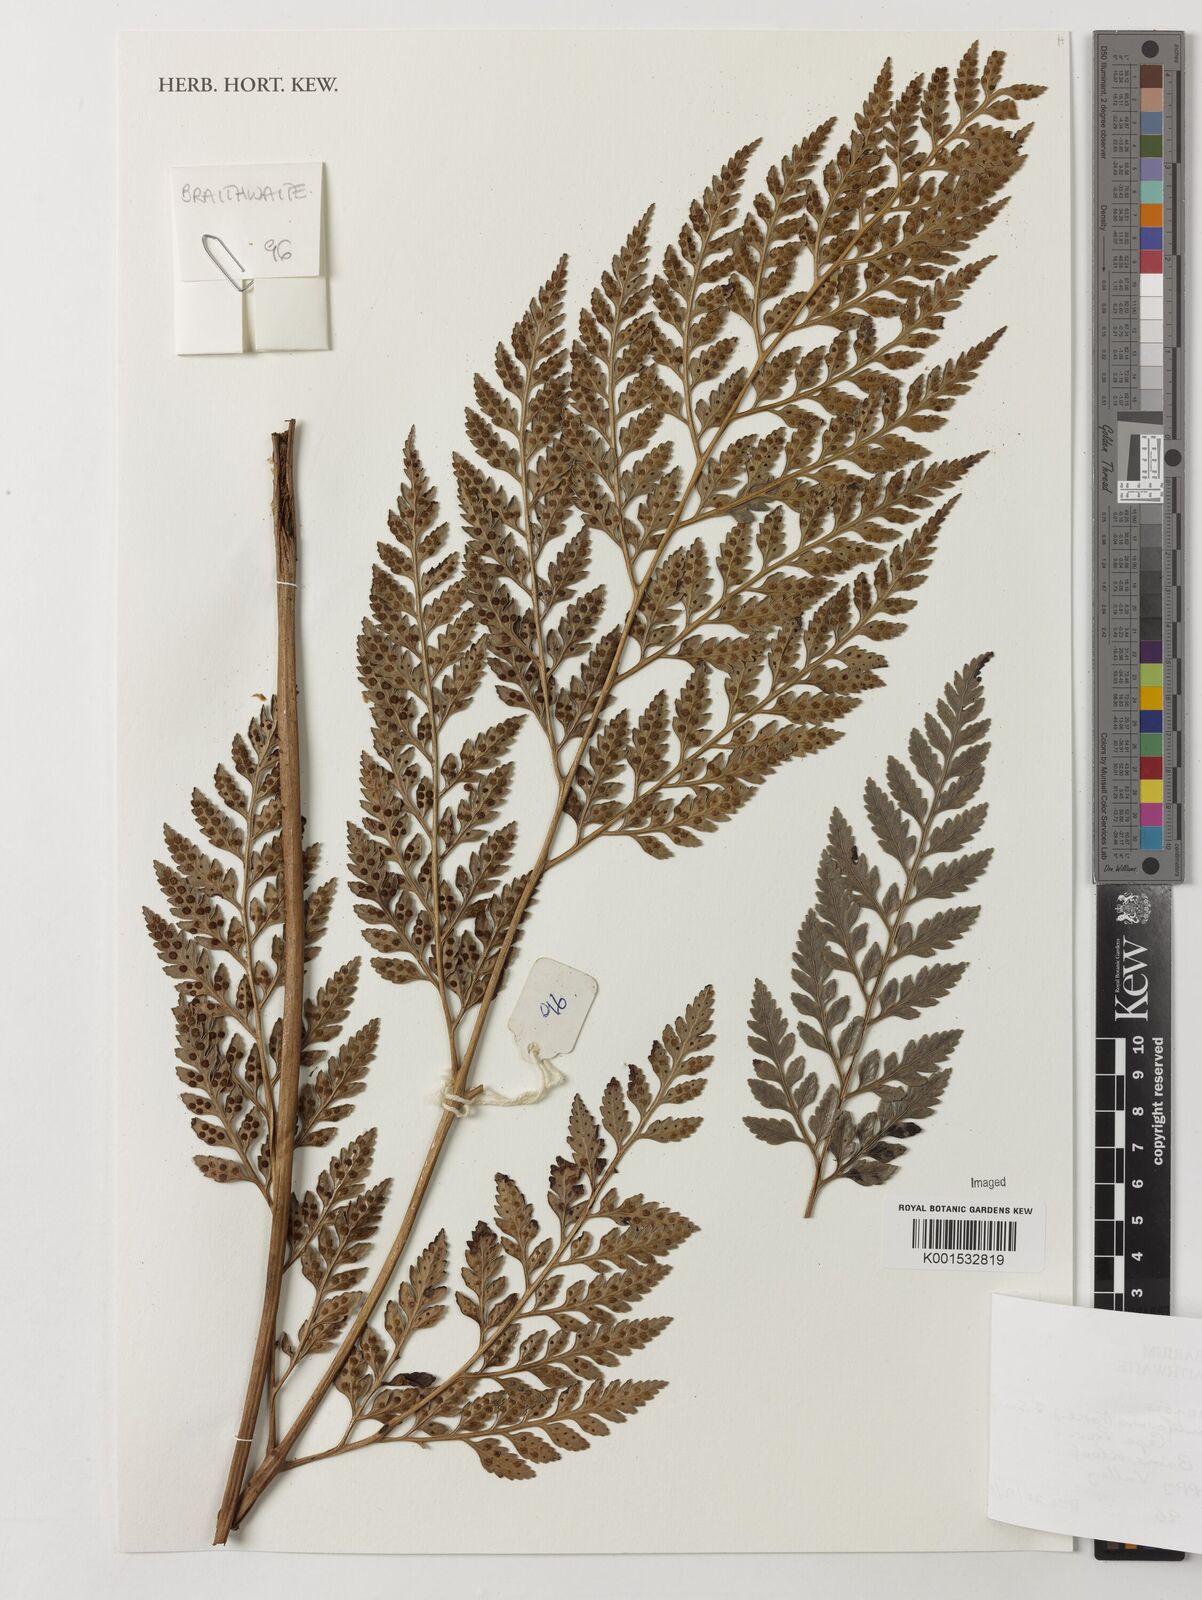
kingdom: Plantae
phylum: Tracheophyta
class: Polypodiopsida
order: Polypodiales
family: Dryopteridaceae
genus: Rumohra
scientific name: Rumohra
